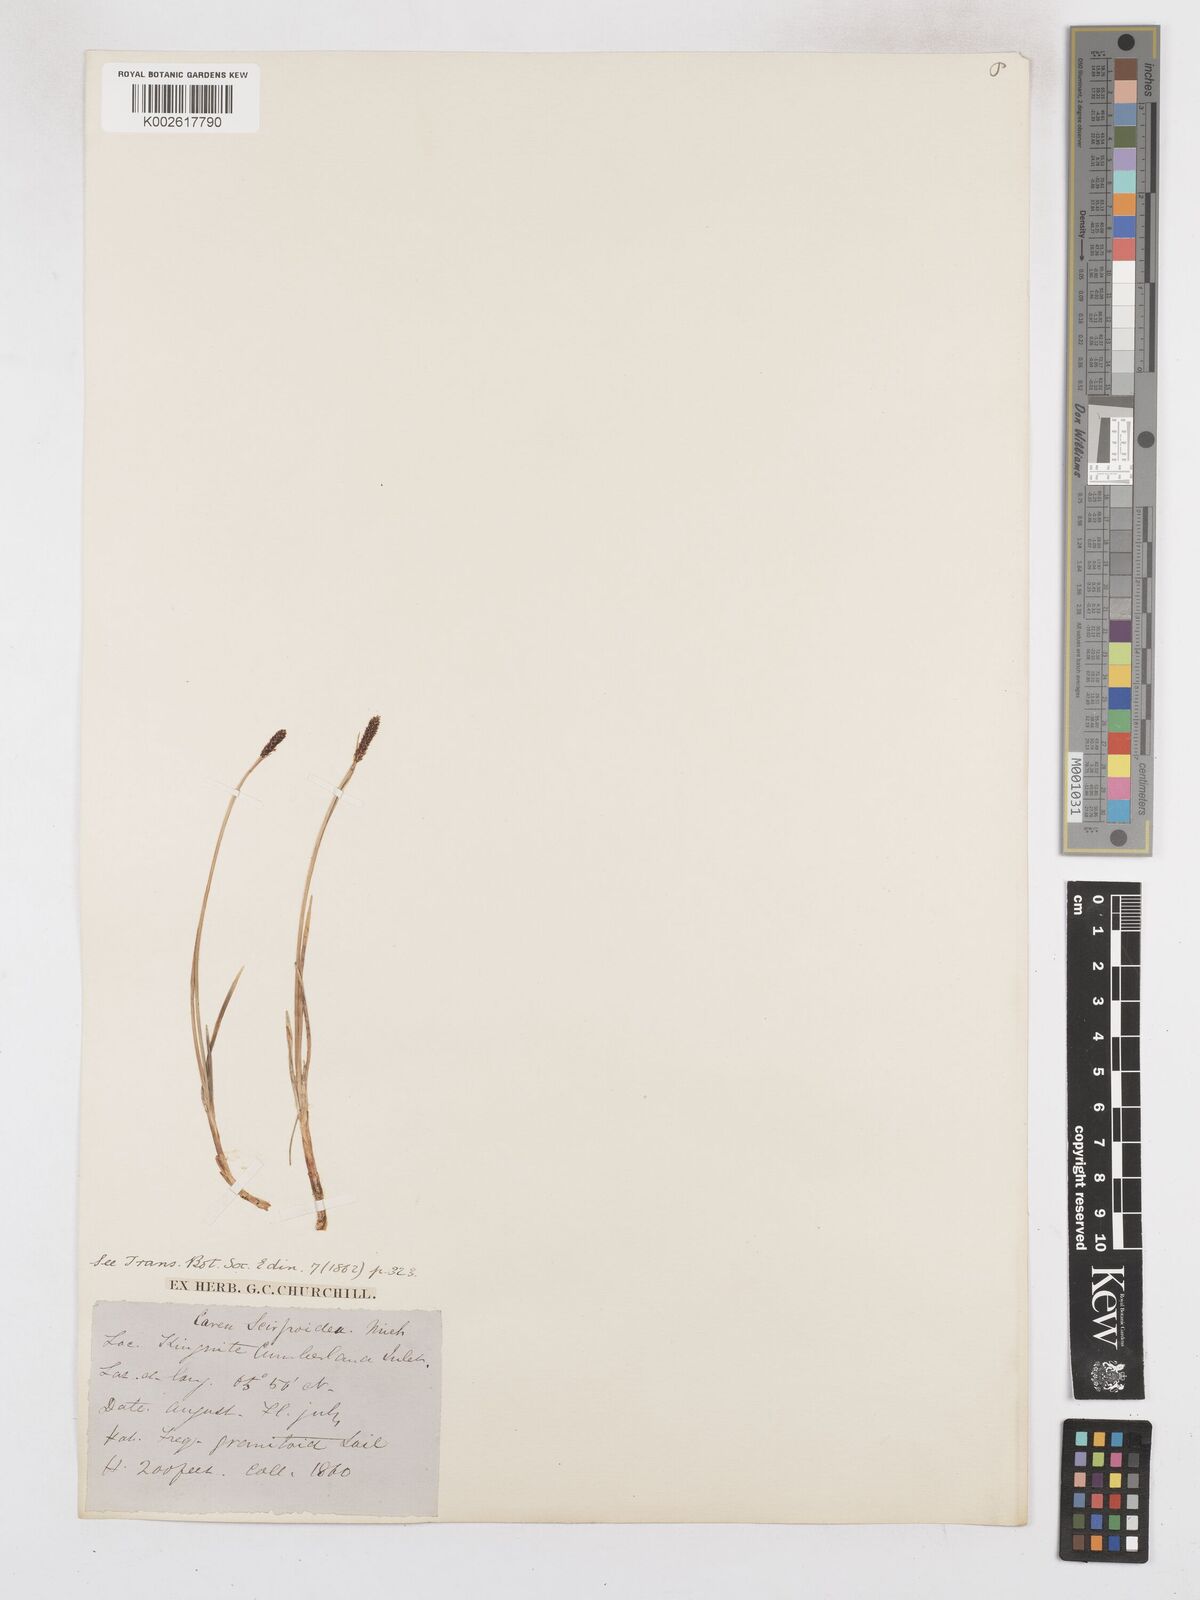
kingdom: Plantae
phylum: Tracheophyta
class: Liliopsida
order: Poales
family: Cyperaceae
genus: Carex
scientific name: Carex scirpoidea
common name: Canada single-spike sedge
